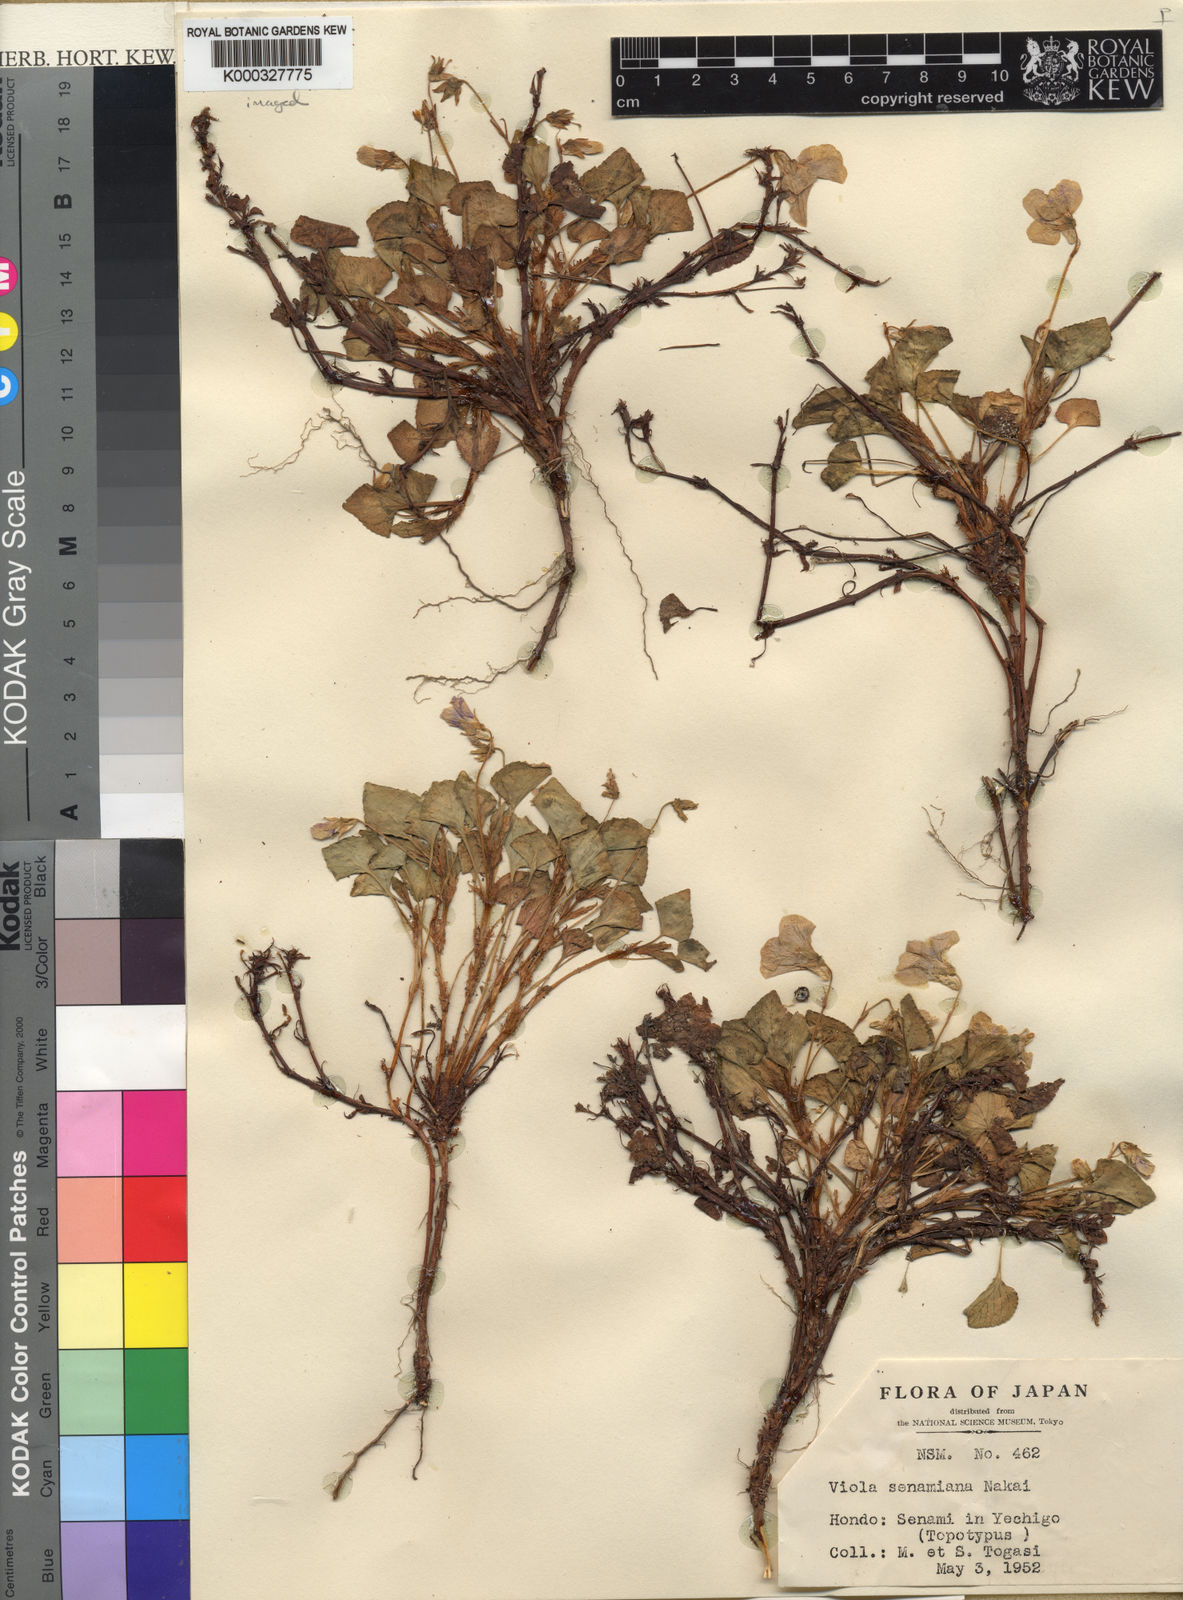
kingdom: Plantae
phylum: Tracheophyta
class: Magnoliopsida
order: Malpighiales
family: Violaceae
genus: Viola
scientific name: Viola grayi
